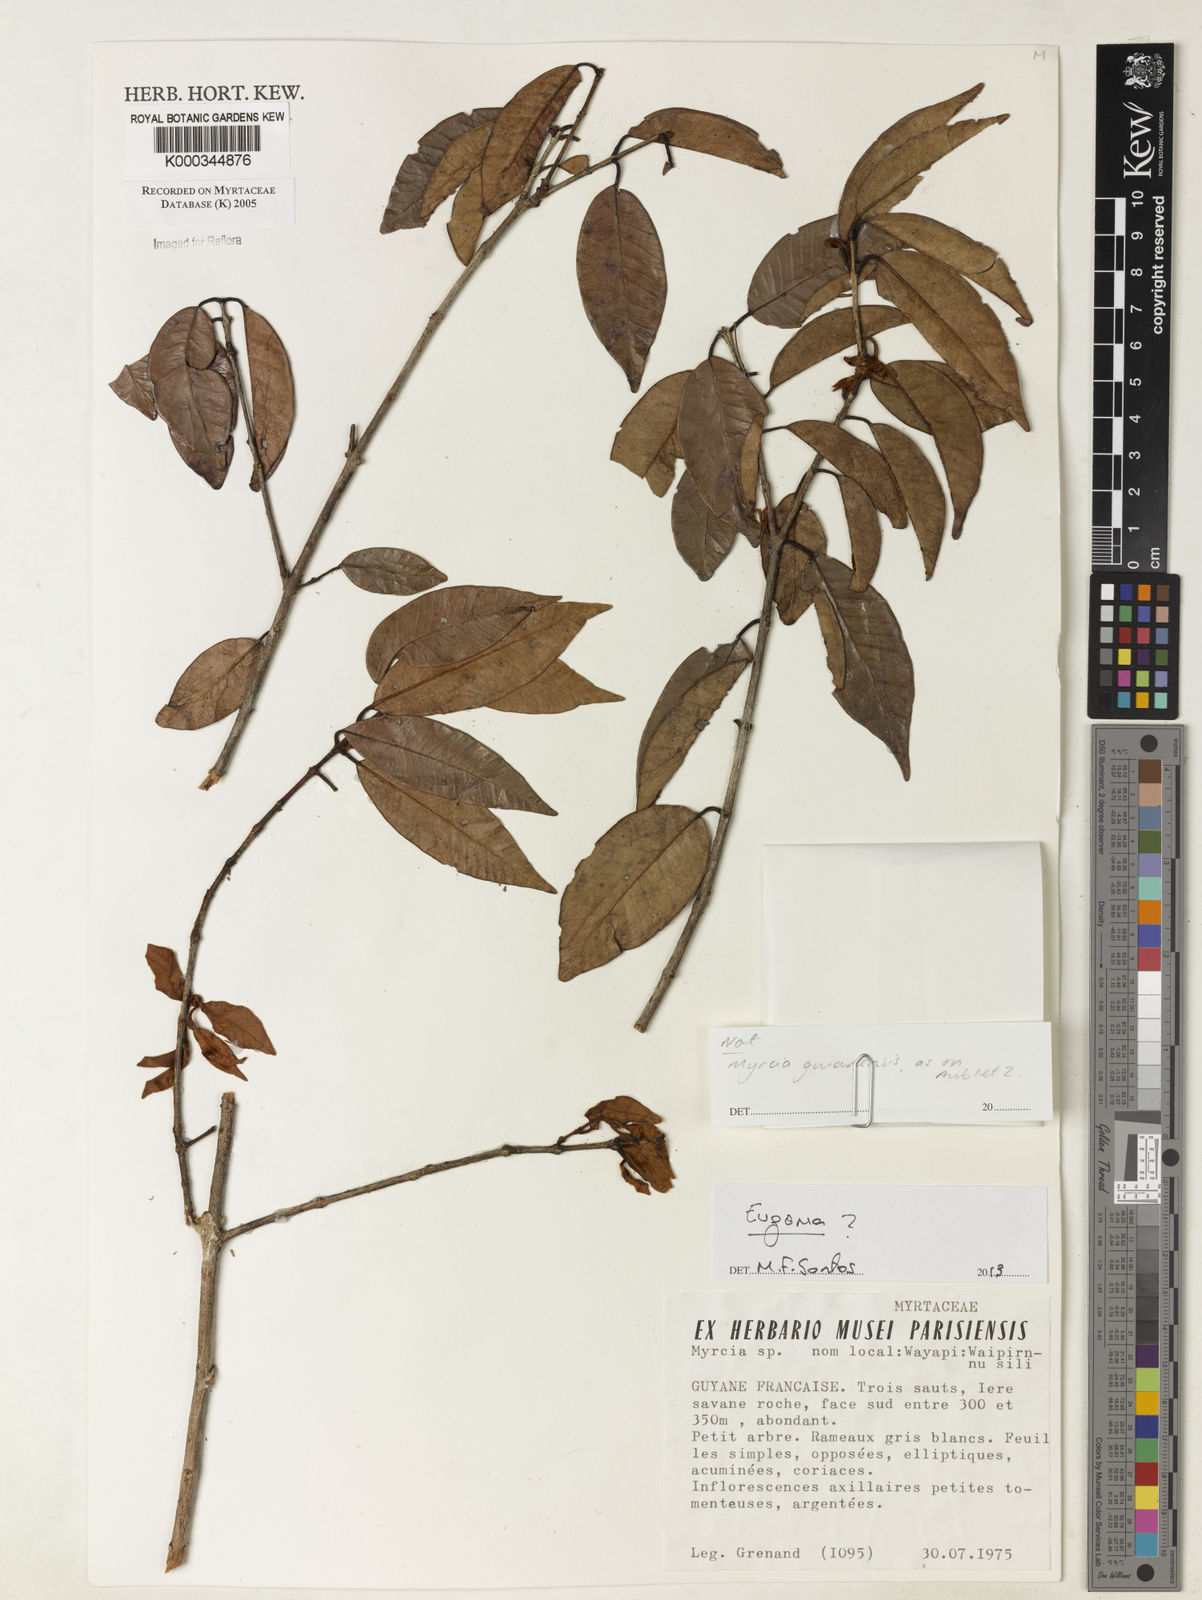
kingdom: Plantae
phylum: Tracheophyta
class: Magnoliopsida
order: Myrtales
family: Myrtaceae
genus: Myrcia
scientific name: Myrcia
